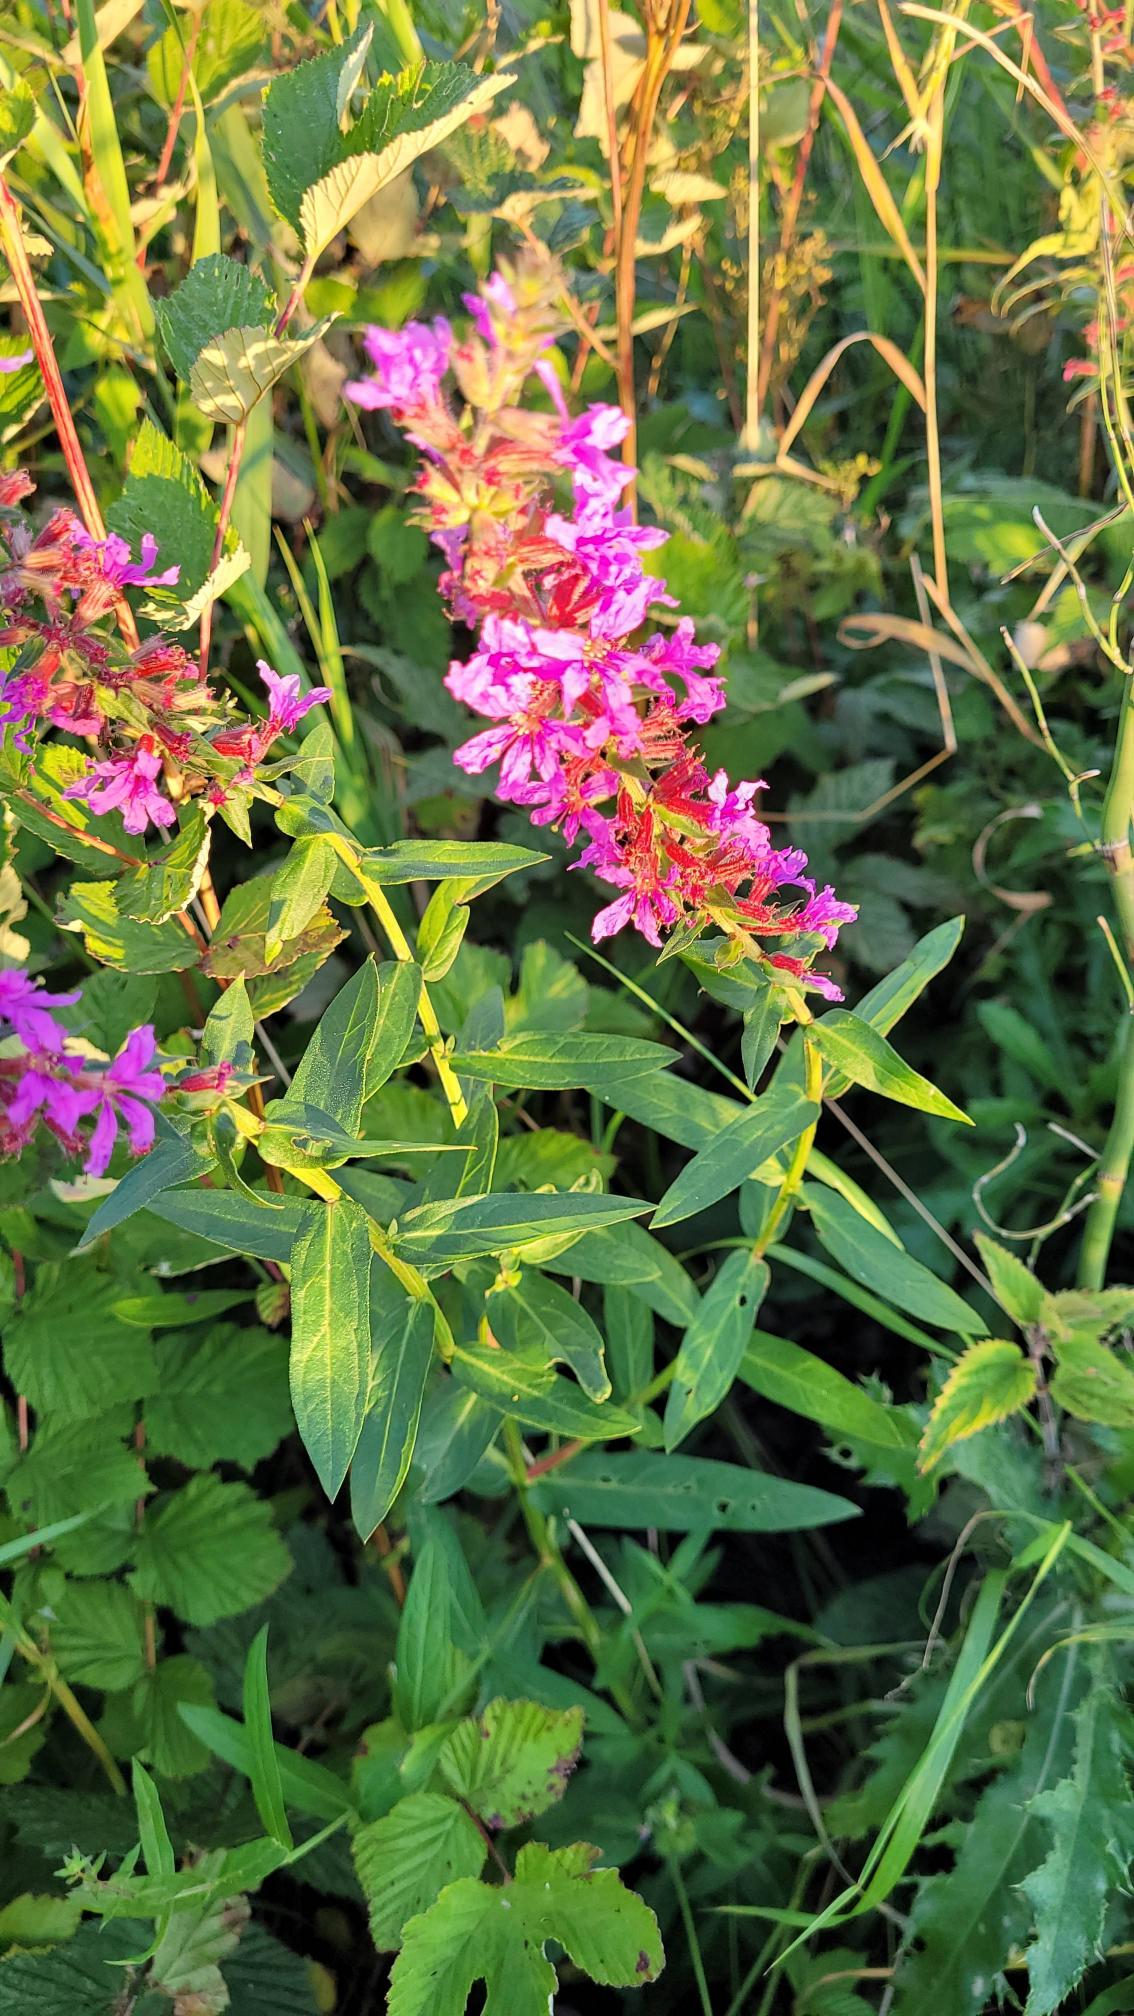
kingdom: Plantae
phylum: Tracheophyta
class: Magnoliopsida
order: Myrtales
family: Lythraceae
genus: Lythrum
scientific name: Lythrum salicaria
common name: Kattehale
